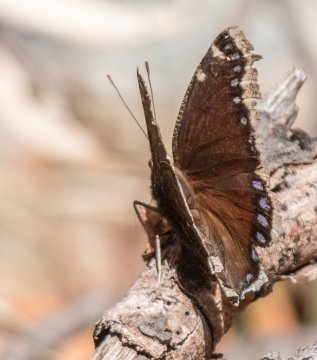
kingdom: Animalia
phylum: Arthropoda
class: Insecta
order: Lepidoptera
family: Nymphalidae
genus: Nymphalis
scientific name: Nymphalis antiopa
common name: Mourning Cloak
